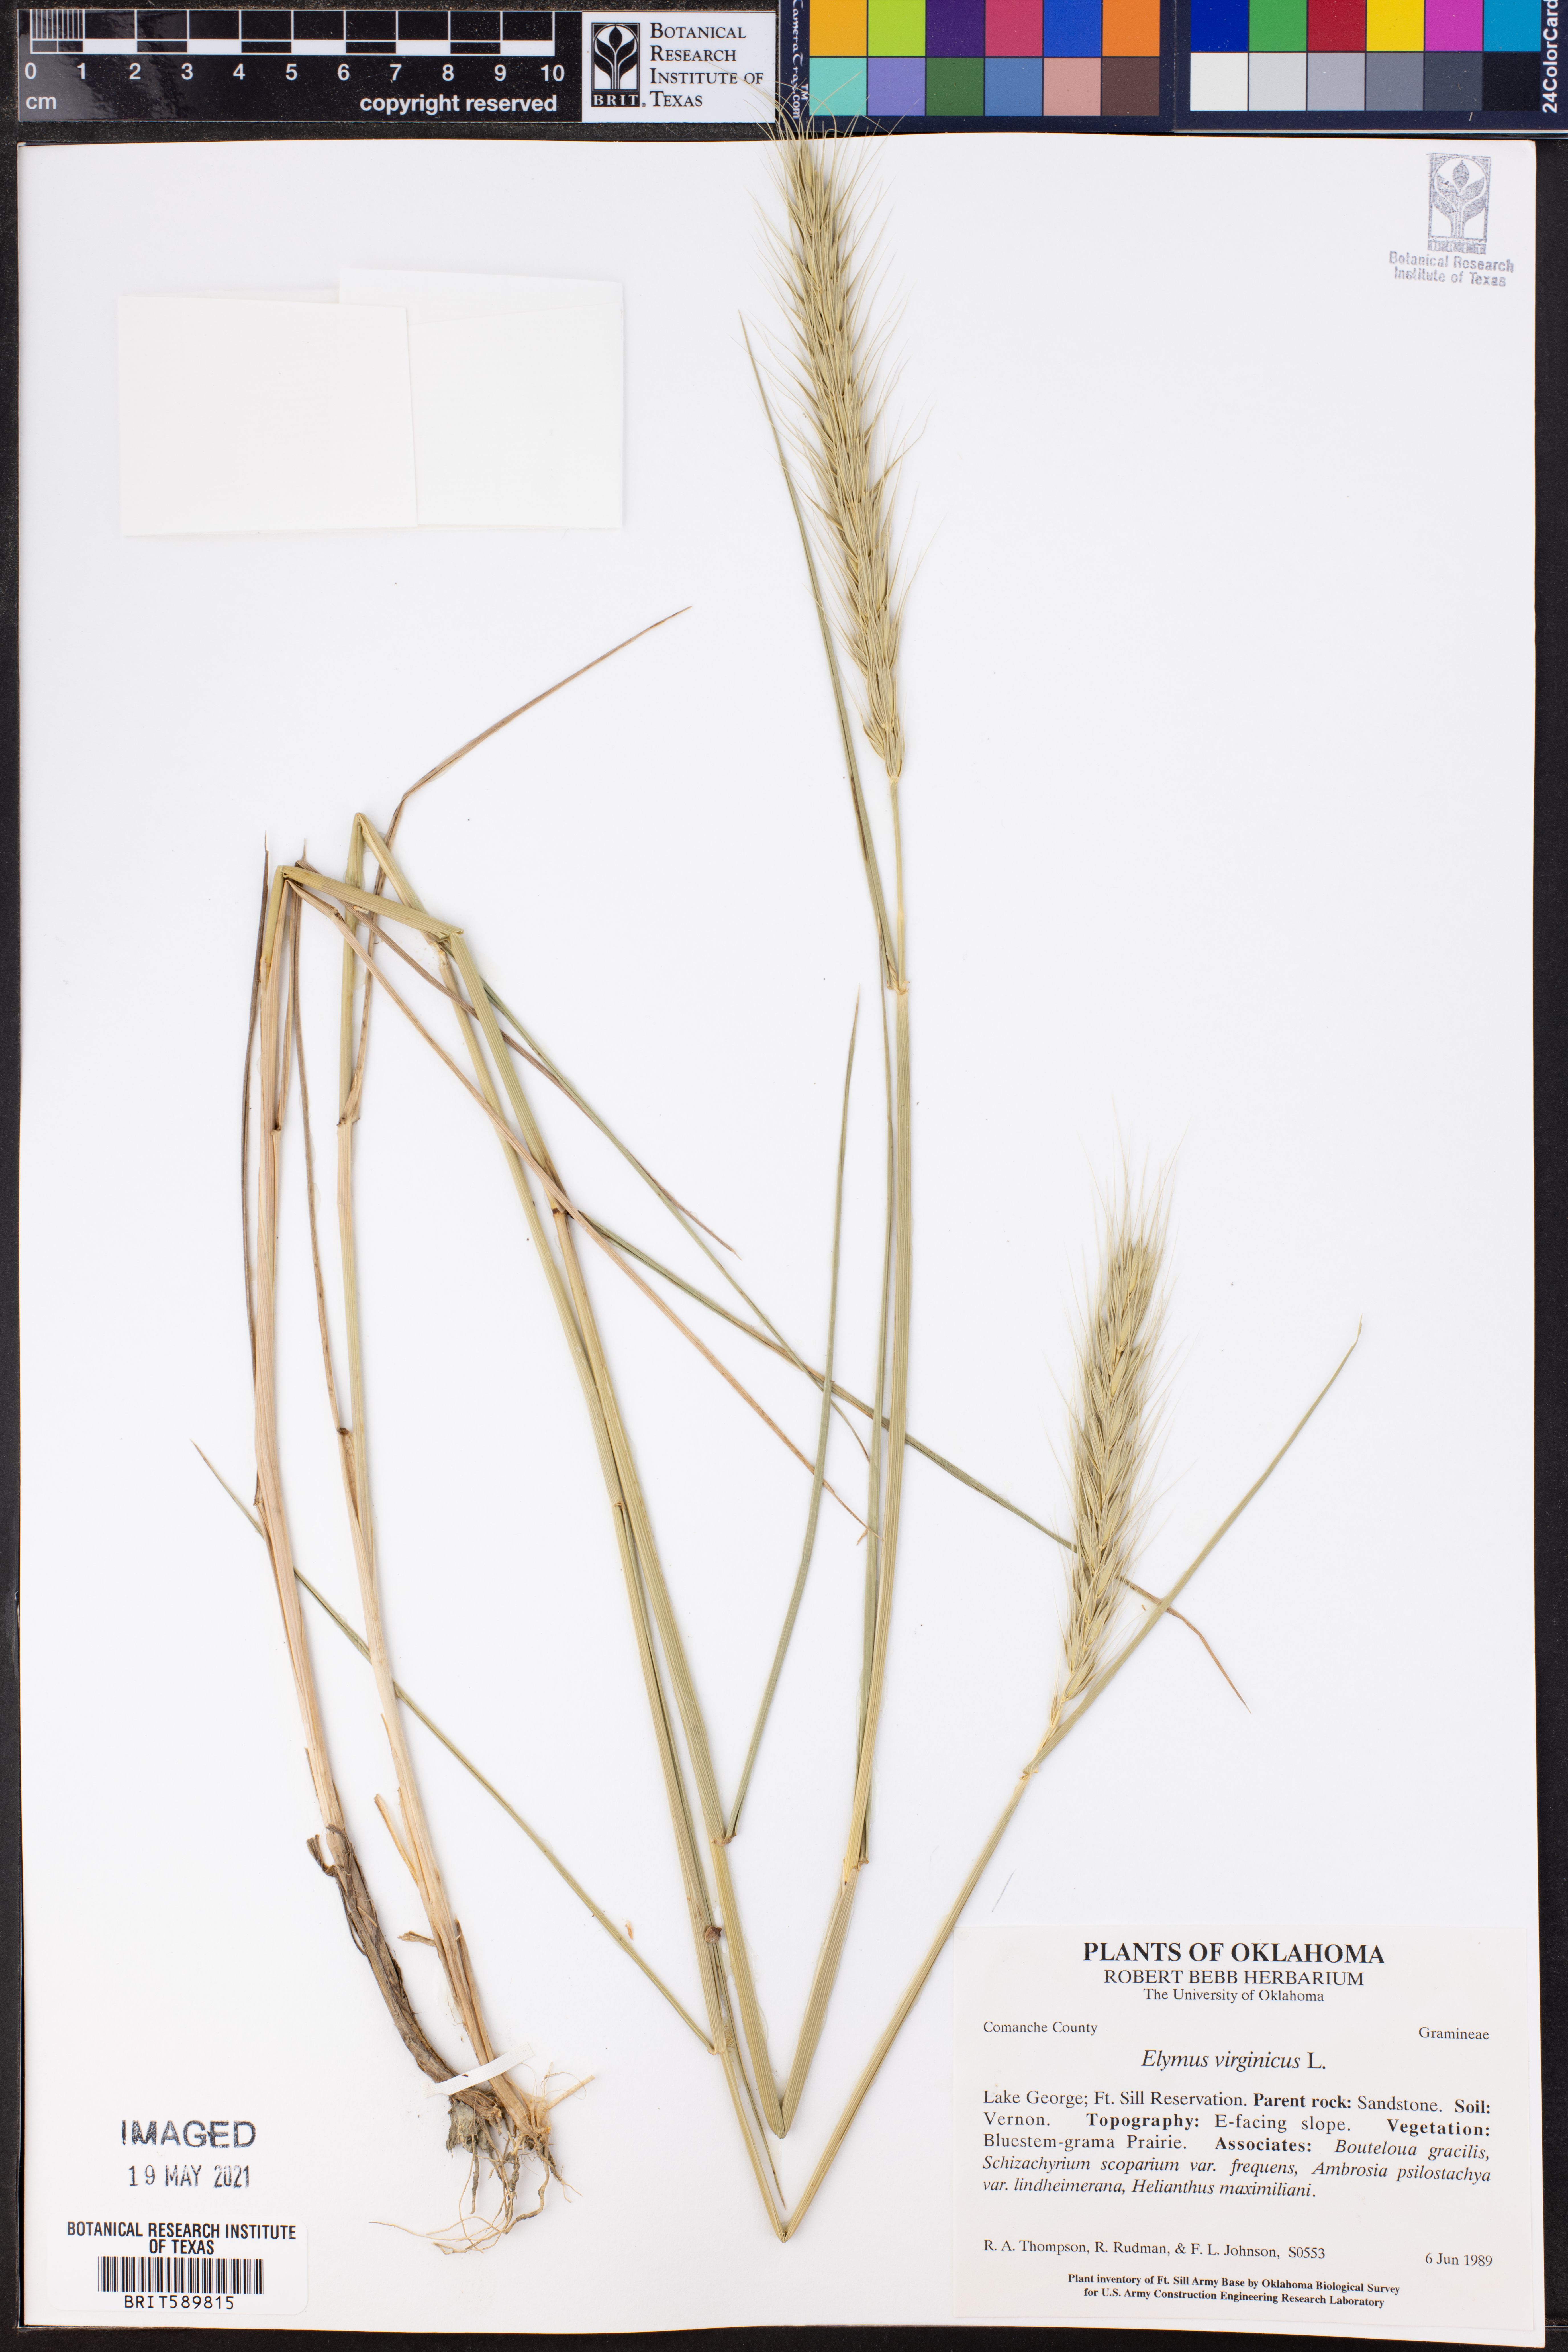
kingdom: Plantae
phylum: Tracheophyta
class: Liliopsida
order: Poales
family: Poaceae
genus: Elymus
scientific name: Elymus virginicus
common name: Common eastern wildrye
